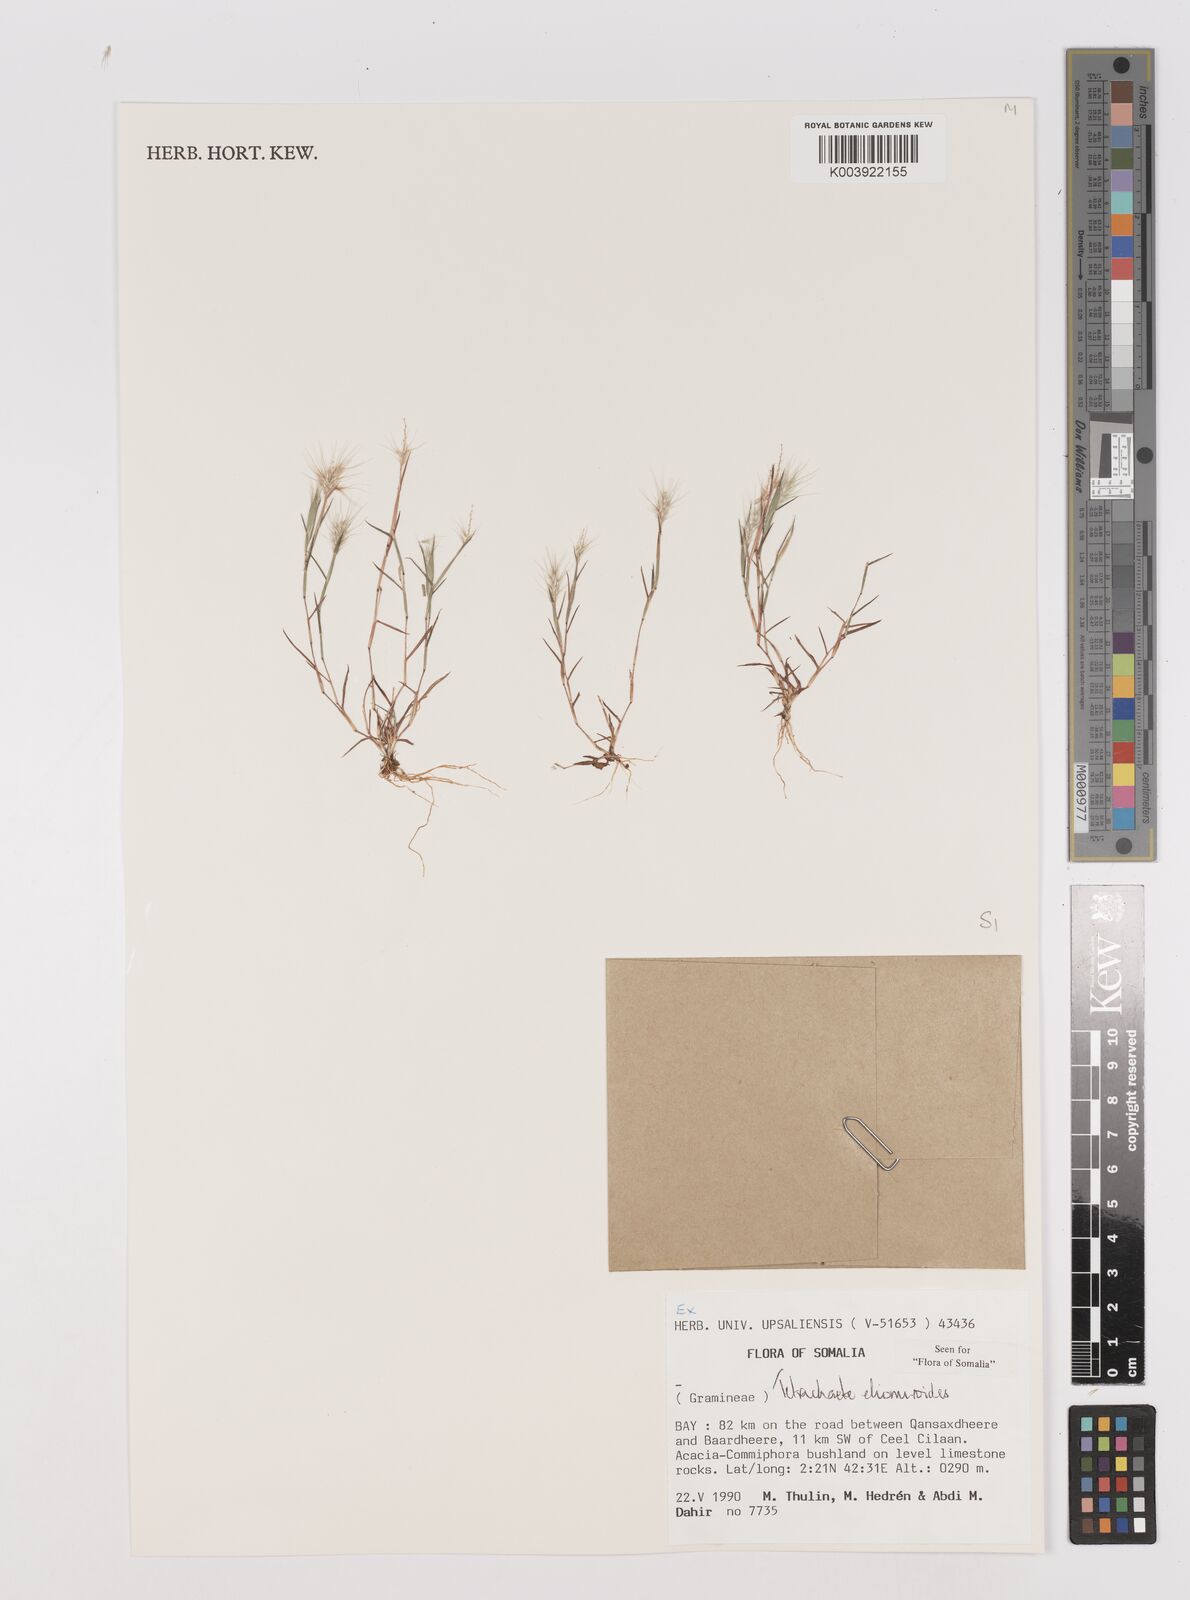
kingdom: Plantae
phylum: Tracheophyta
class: Liliopsida
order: Poales
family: Poaceae
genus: Tetrachaete
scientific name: Tetrachaete elionuroides
